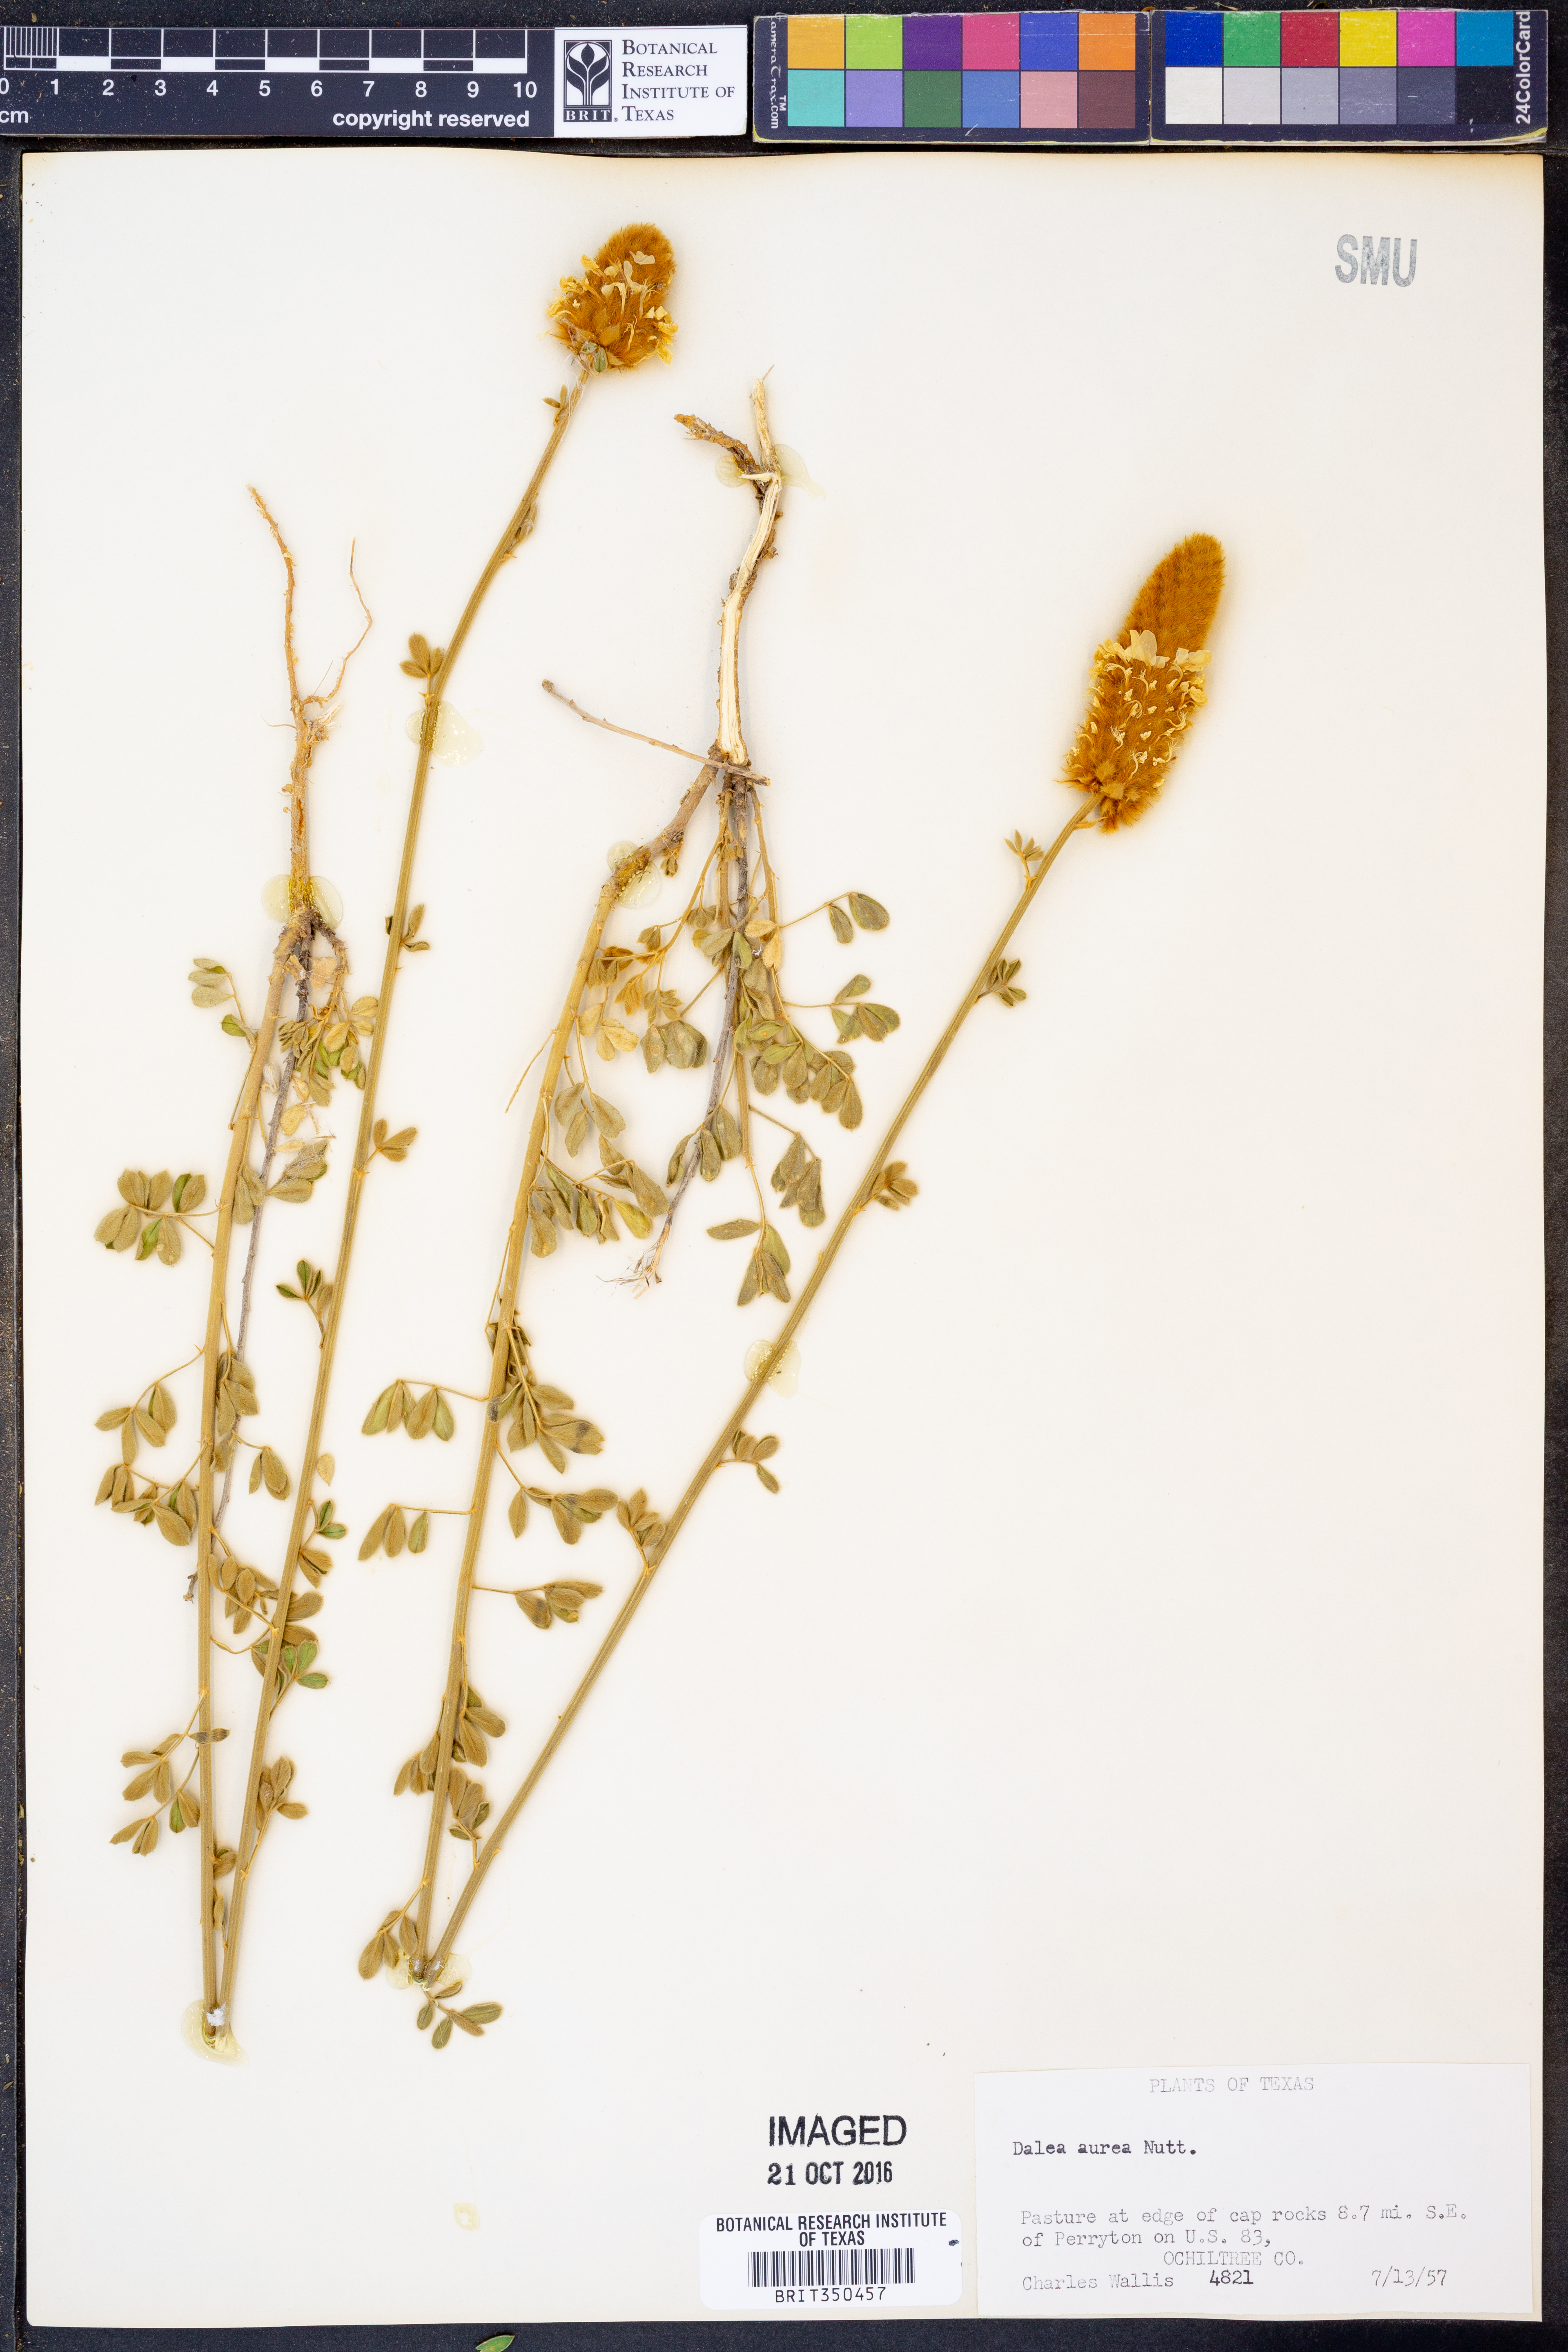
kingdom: Plantae
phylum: Tracheophyta
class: Magnoliopsida
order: Fabales
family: Fabaceae
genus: Dalea
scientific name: Dalea aurea
